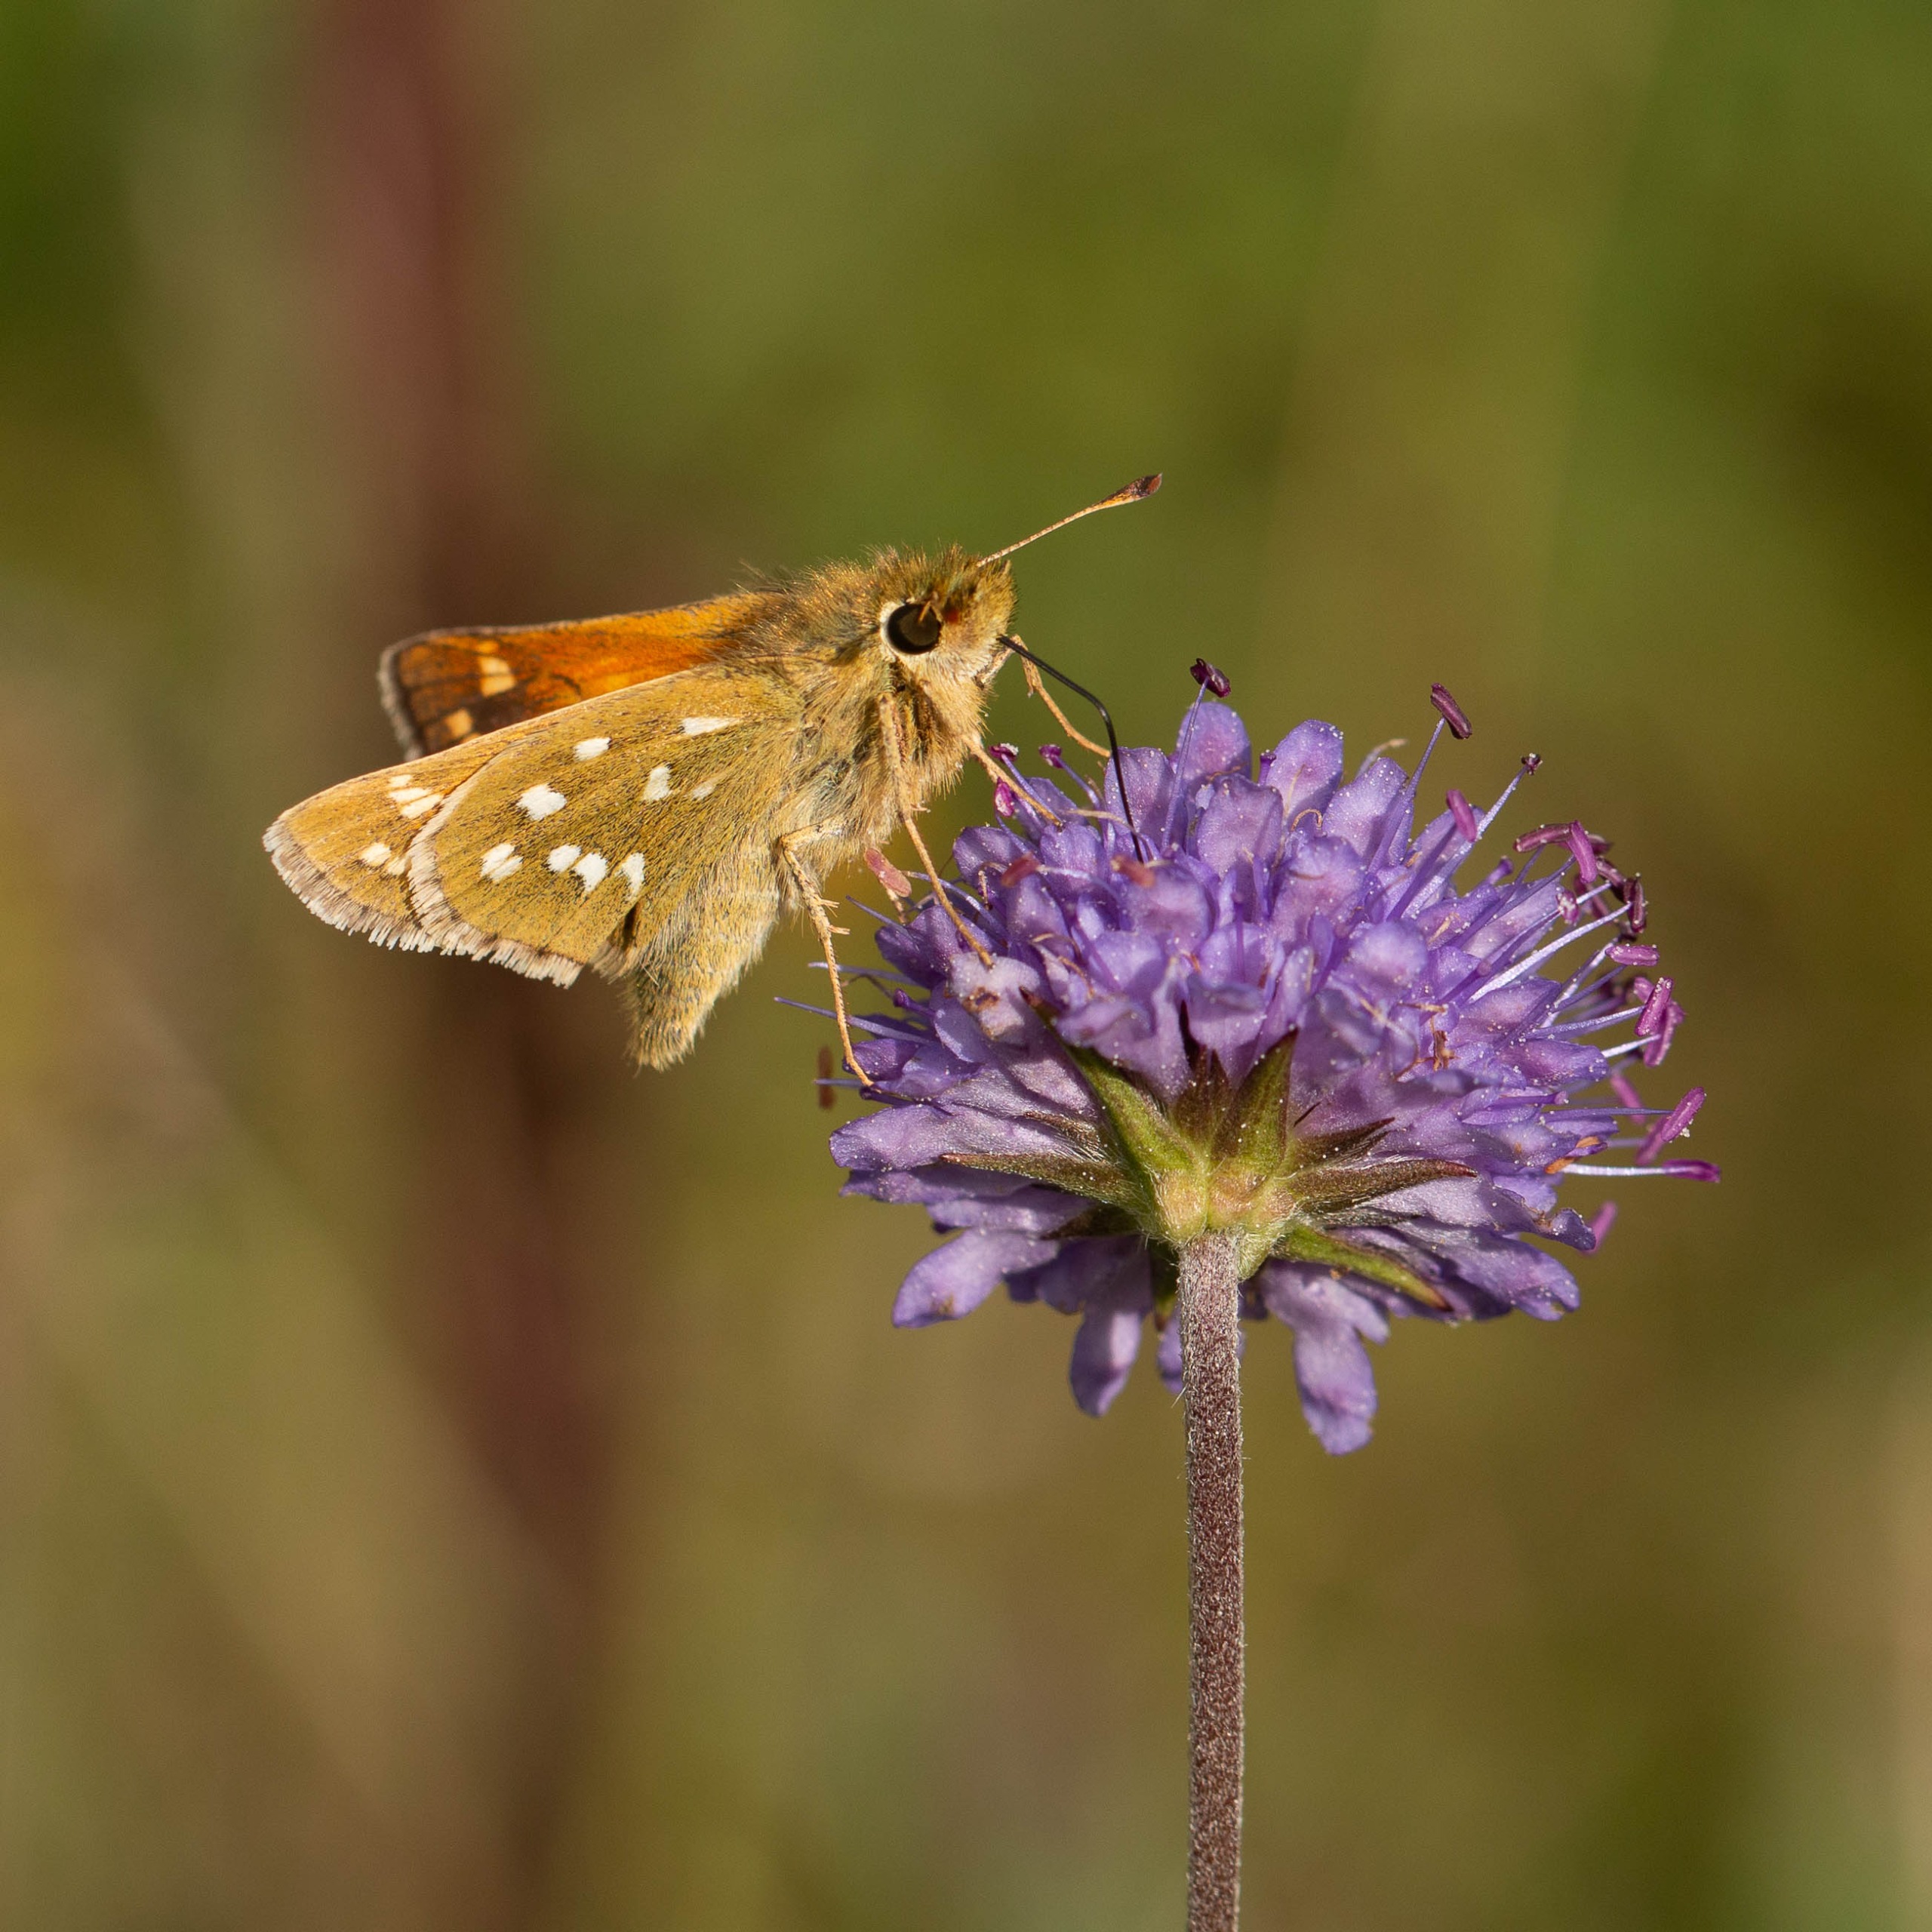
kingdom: Animalia
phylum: Arthropoda
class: Insecta
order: Lepidoptera
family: Hesperiidae
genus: Hesperia
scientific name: Hesperia comma
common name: Kommabredpande
